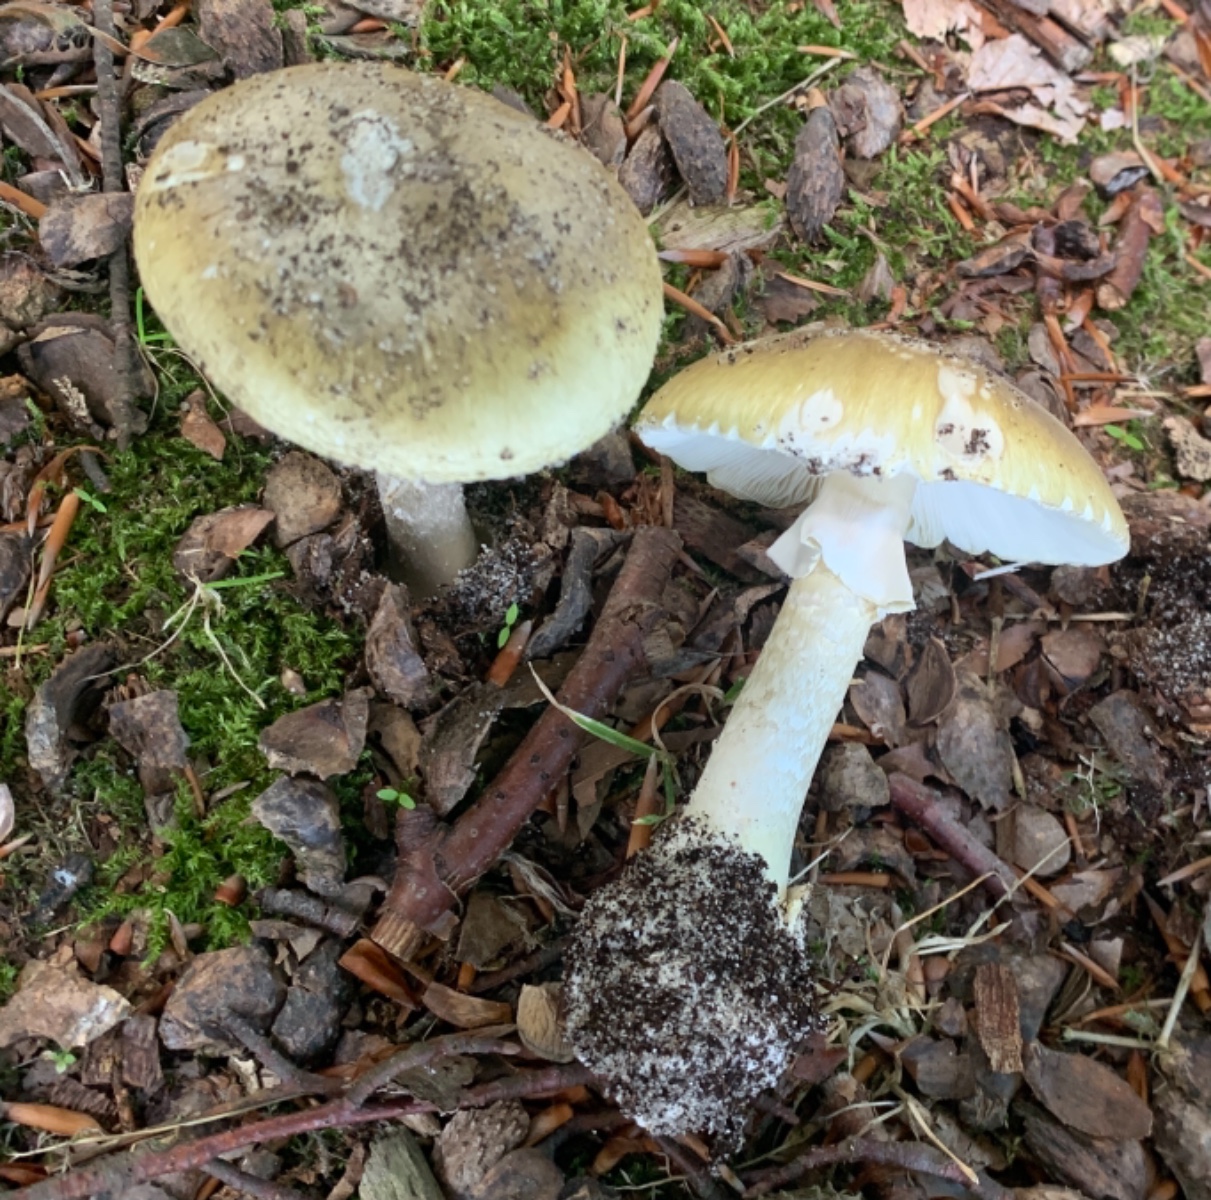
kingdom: Fungi
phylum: Basidiomycota
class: Agaricomycetes
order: Agaricales
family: Amanitaceae
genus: Amanita
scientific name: Amanita phalloides
